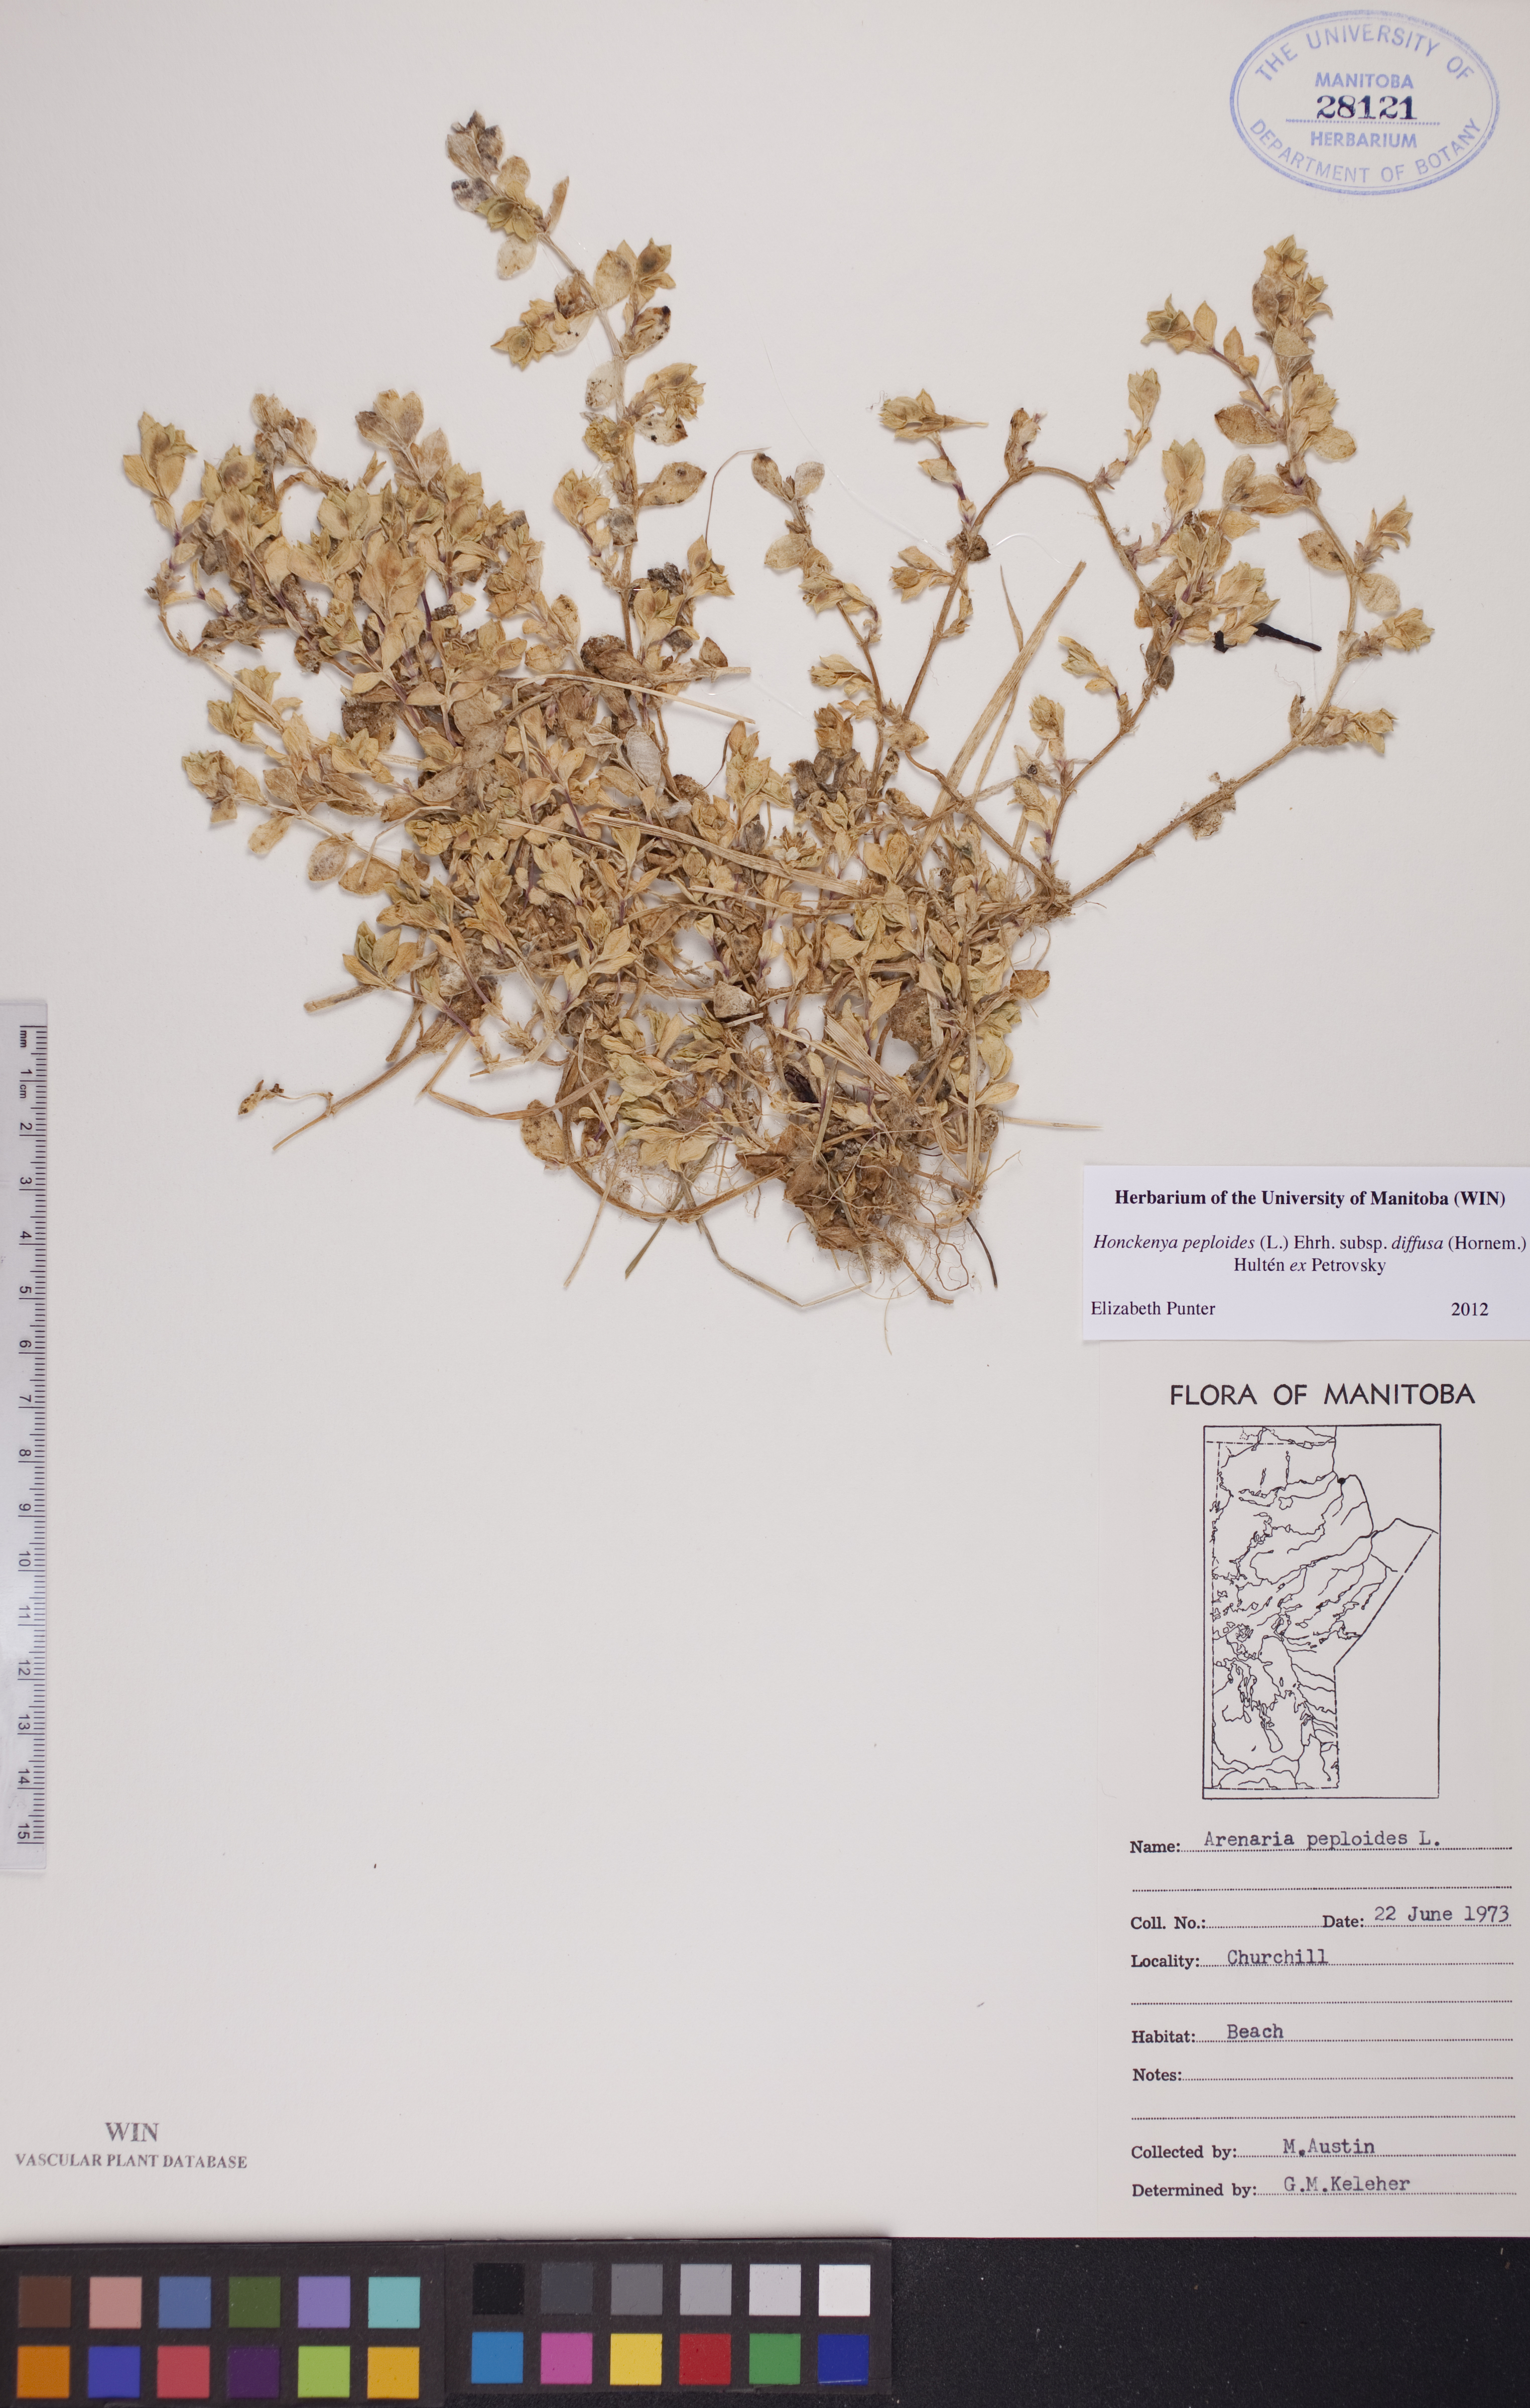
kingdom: Plantae
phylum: Tracheophyta
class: Magnoliopsida
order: Caryophyllales
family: Caryophyllaceae
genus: Honckenya
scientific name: Honckenya peploides
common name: Sea sandwort
